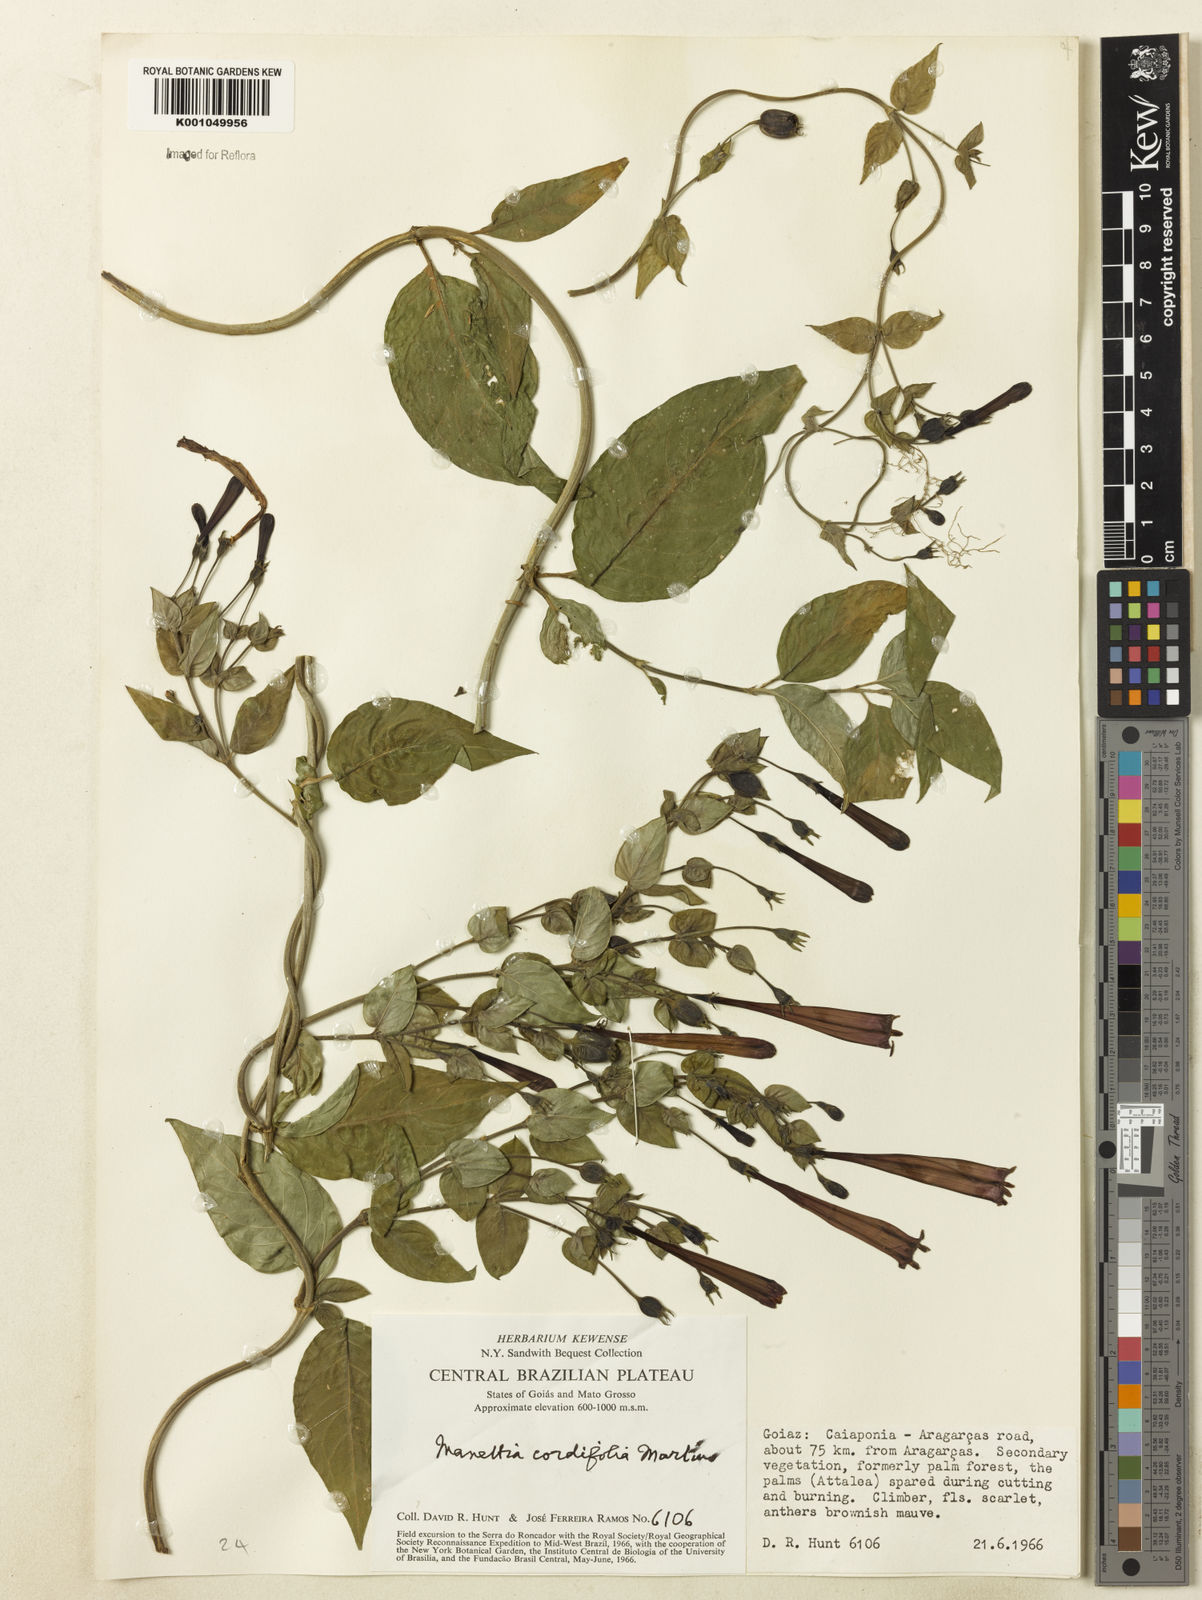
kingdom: Plantae
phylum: Tracheophyta
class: Magnoliopsida
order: Gentianales
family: Rubiaceae
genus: Manettia
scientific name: Manettia cordifolia
